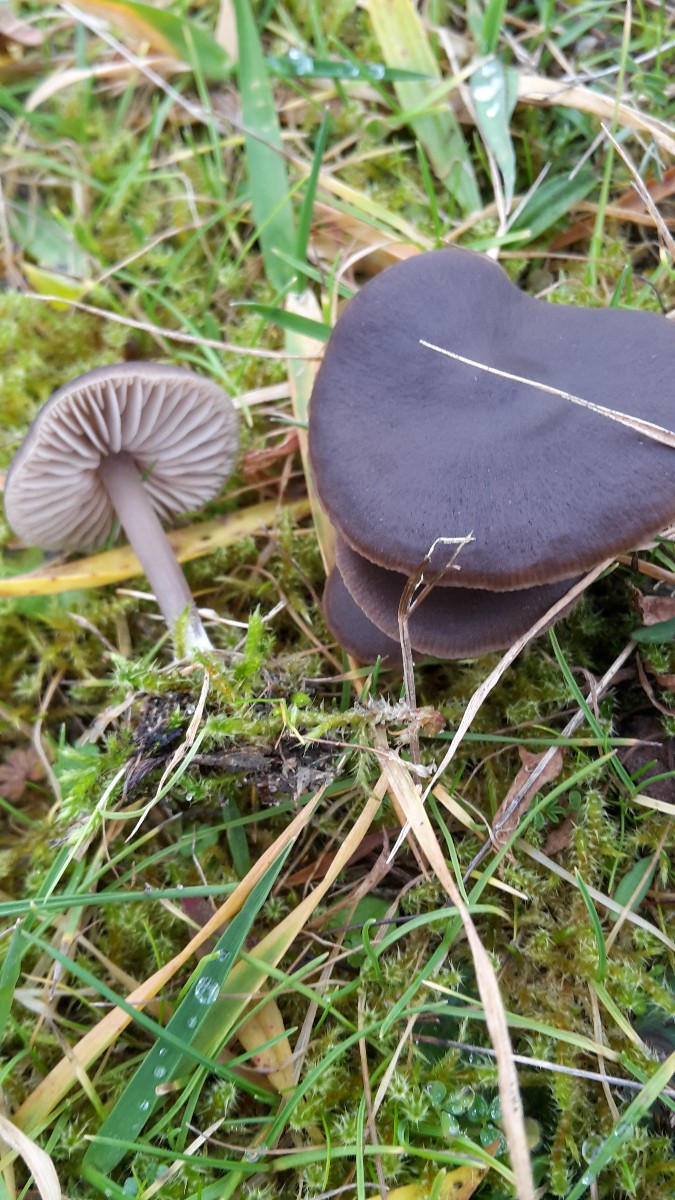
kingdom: Fungi
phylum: Basidiomycota
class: Agaricomycetes
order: Agaricales
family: Entolomataceae
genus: Entoloma
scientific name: Entoloma vindobonense
